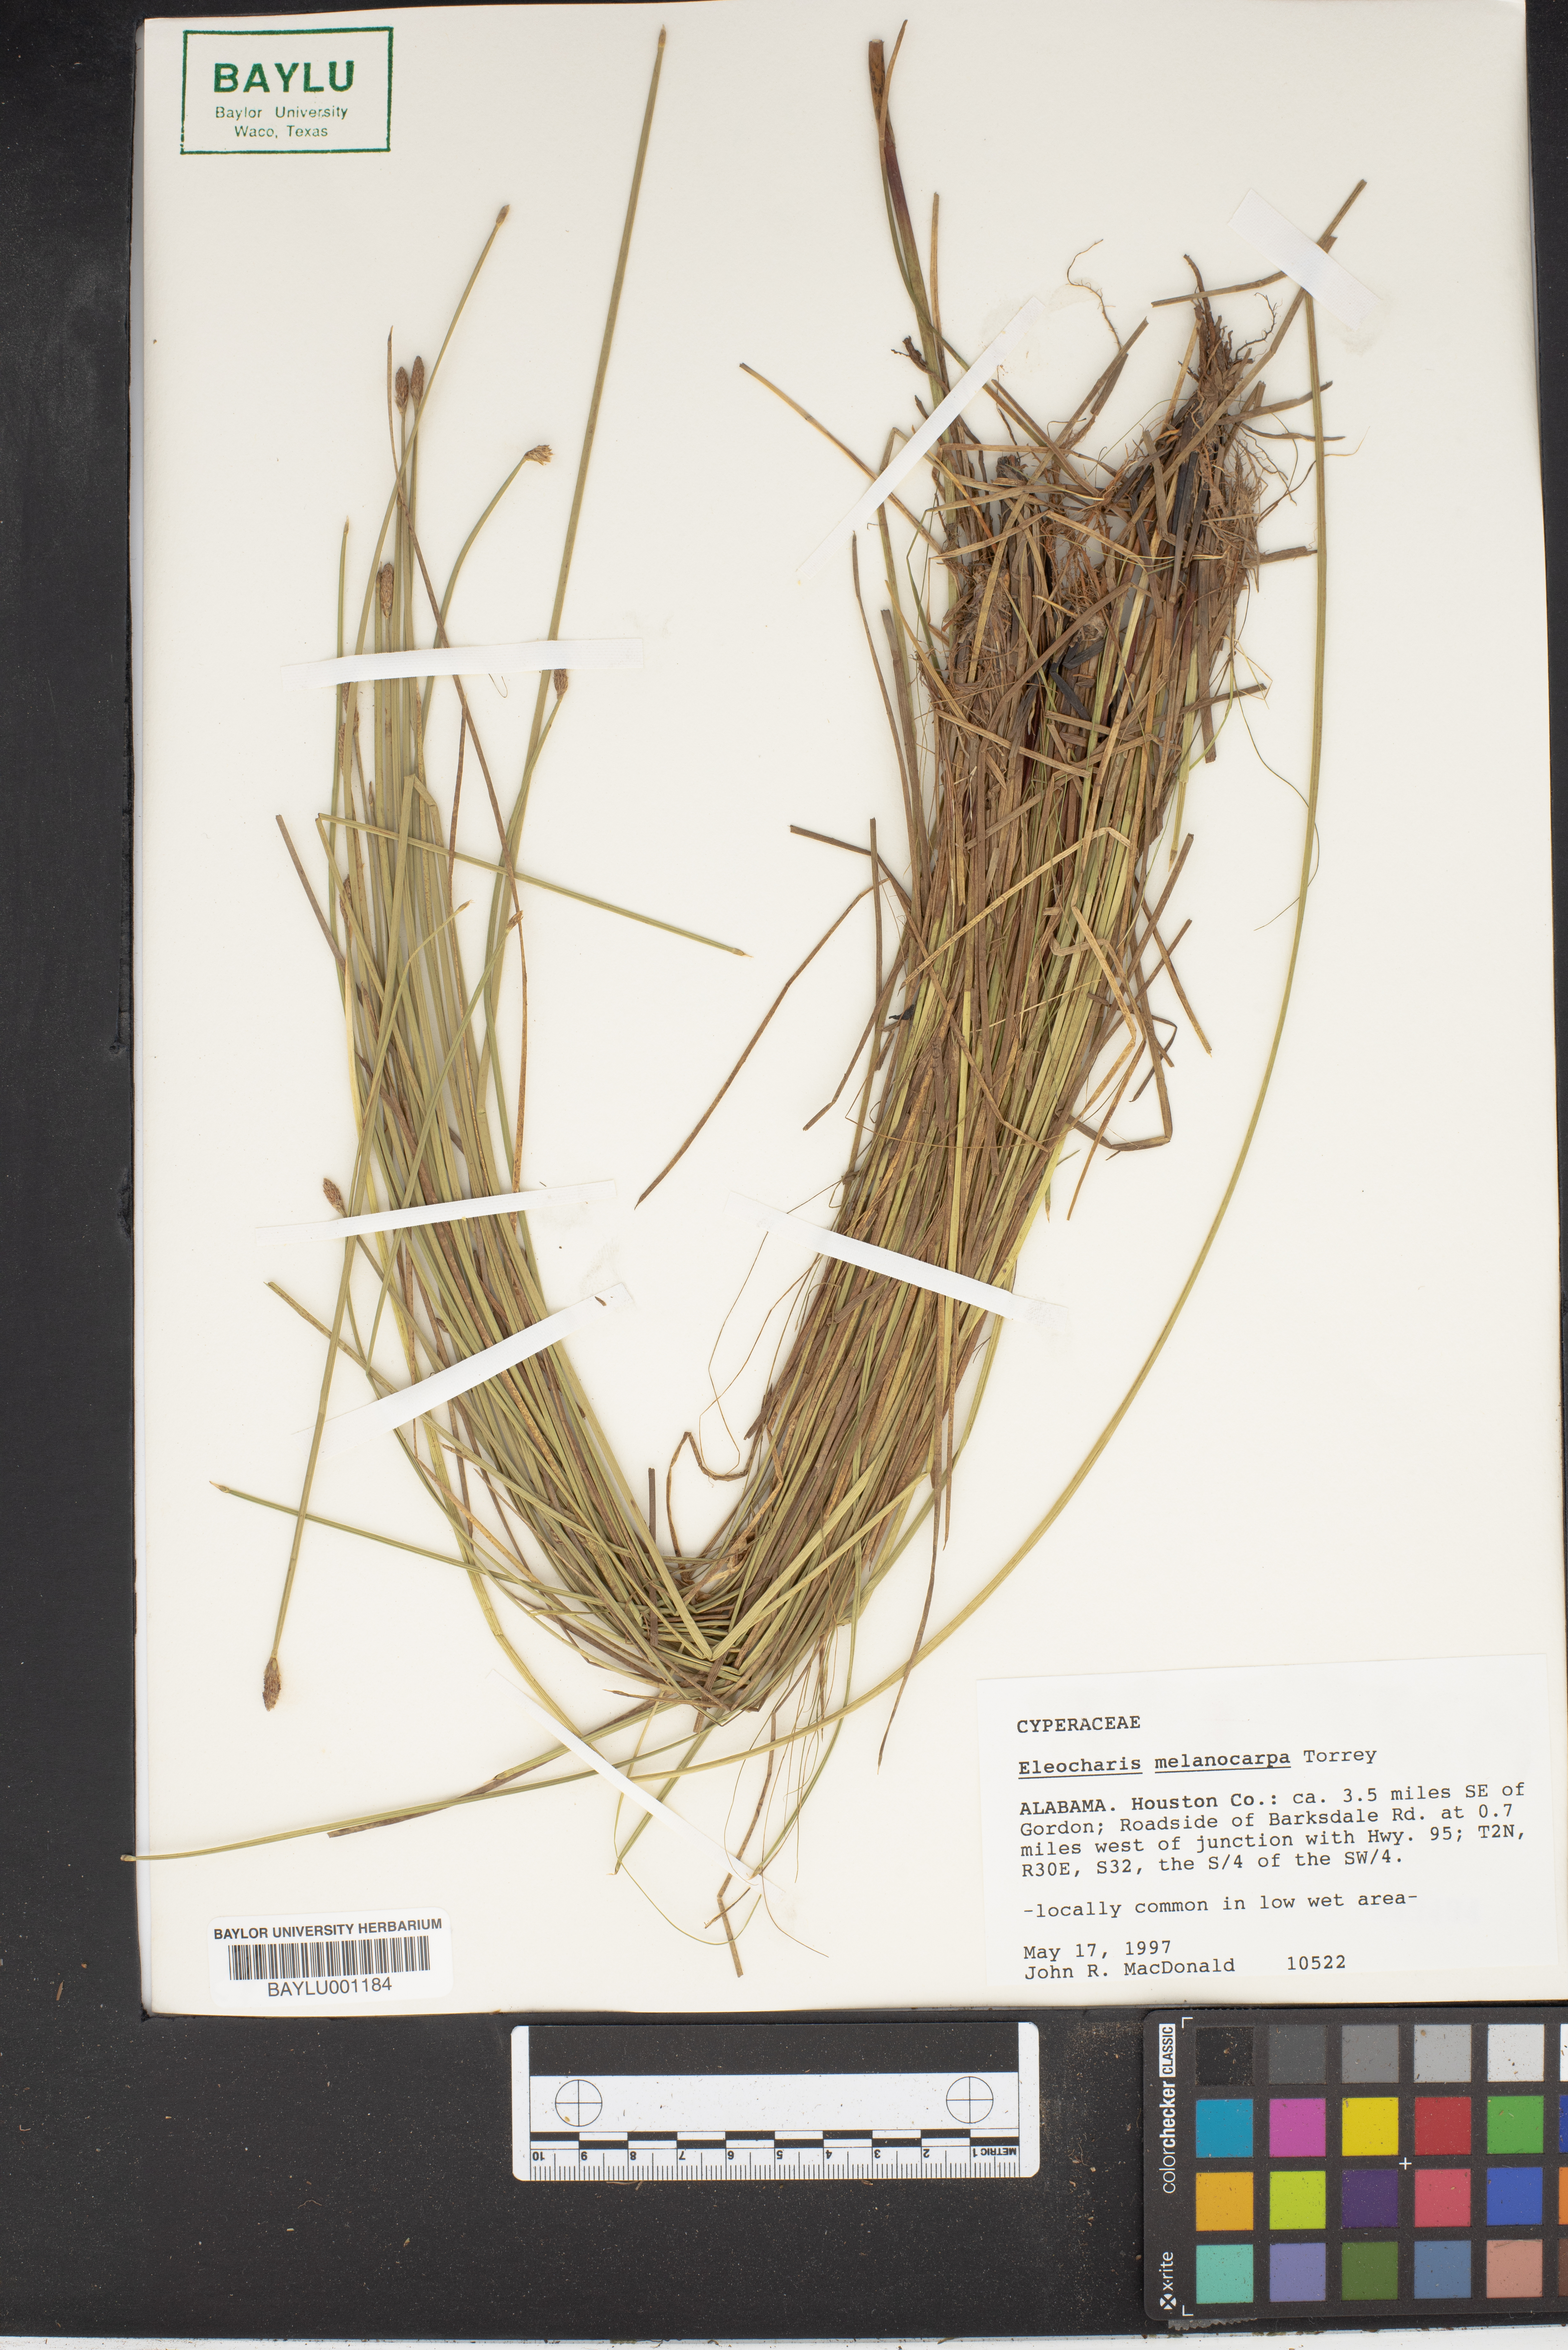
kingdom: Plantae
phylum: Tracheophyta
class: Liliopsida
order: Poales
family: Cyperaceae
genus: Eleocharis
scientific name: Eleocharis melanocarpa
